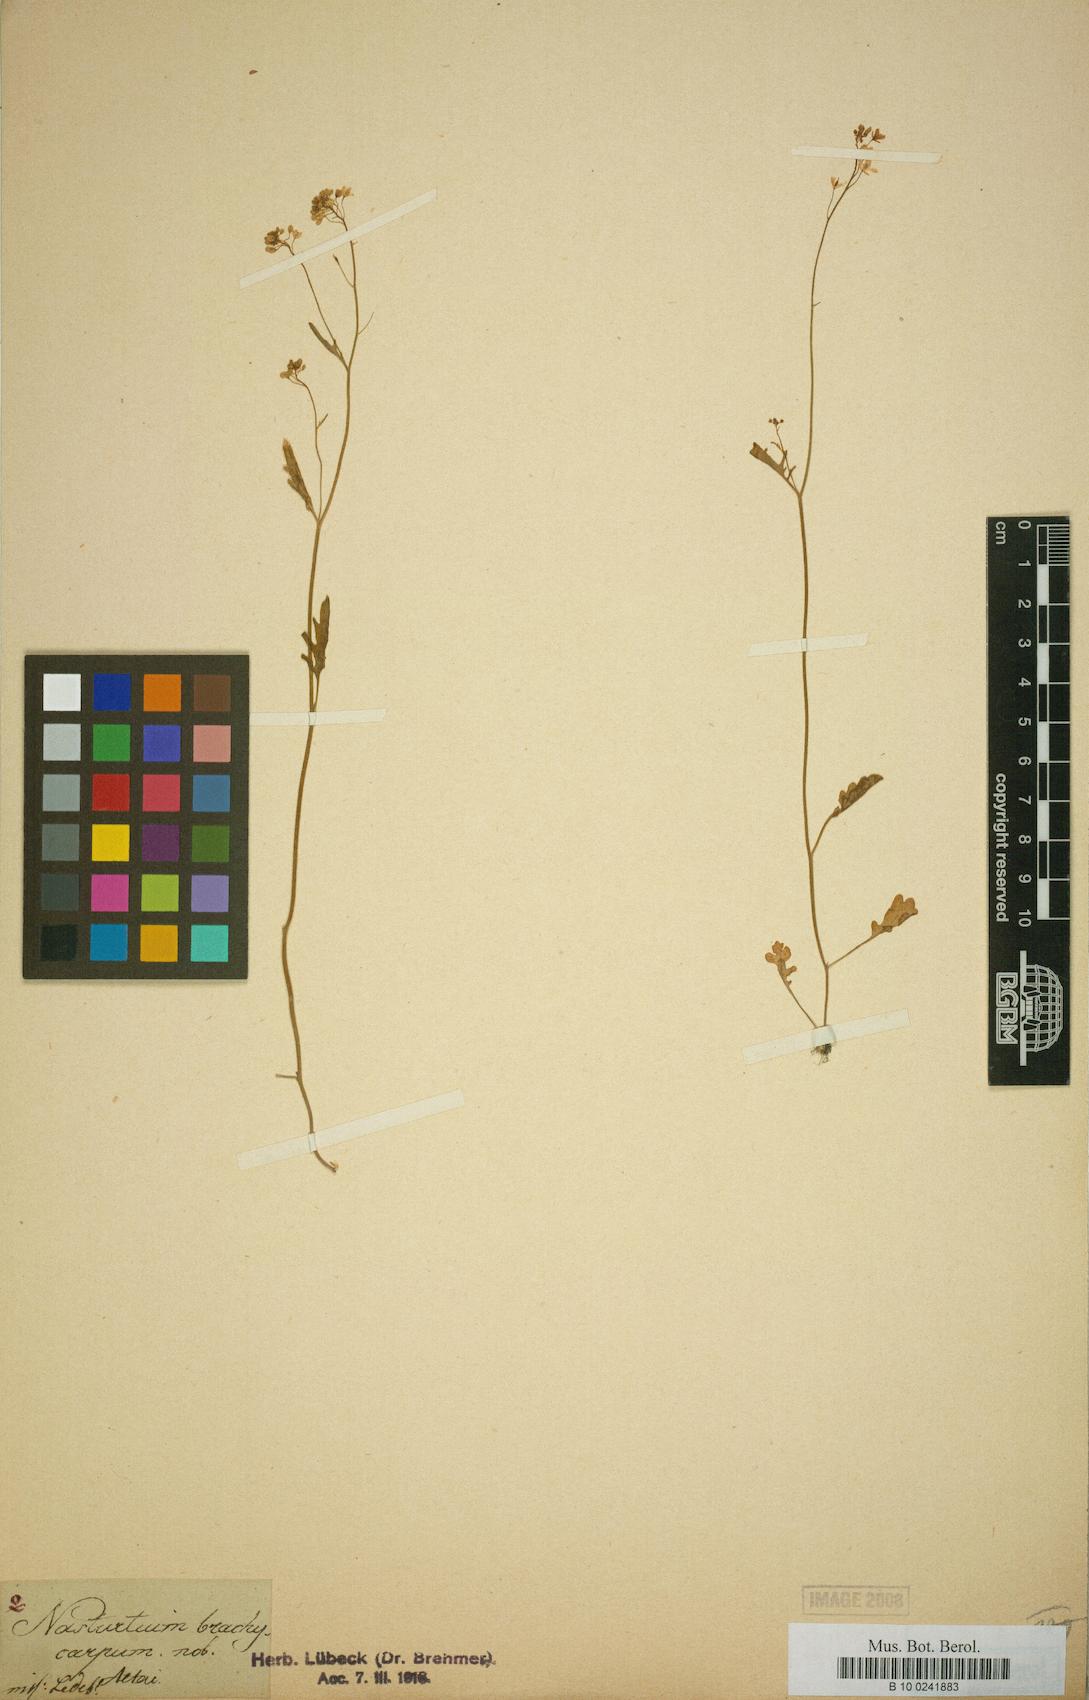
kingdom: Plantae
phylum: Tracheophyta
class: Magnoliopsida
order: Brassicales
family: Brassicaceae
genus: Rorippa
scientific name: Rorippa brachycarpa
